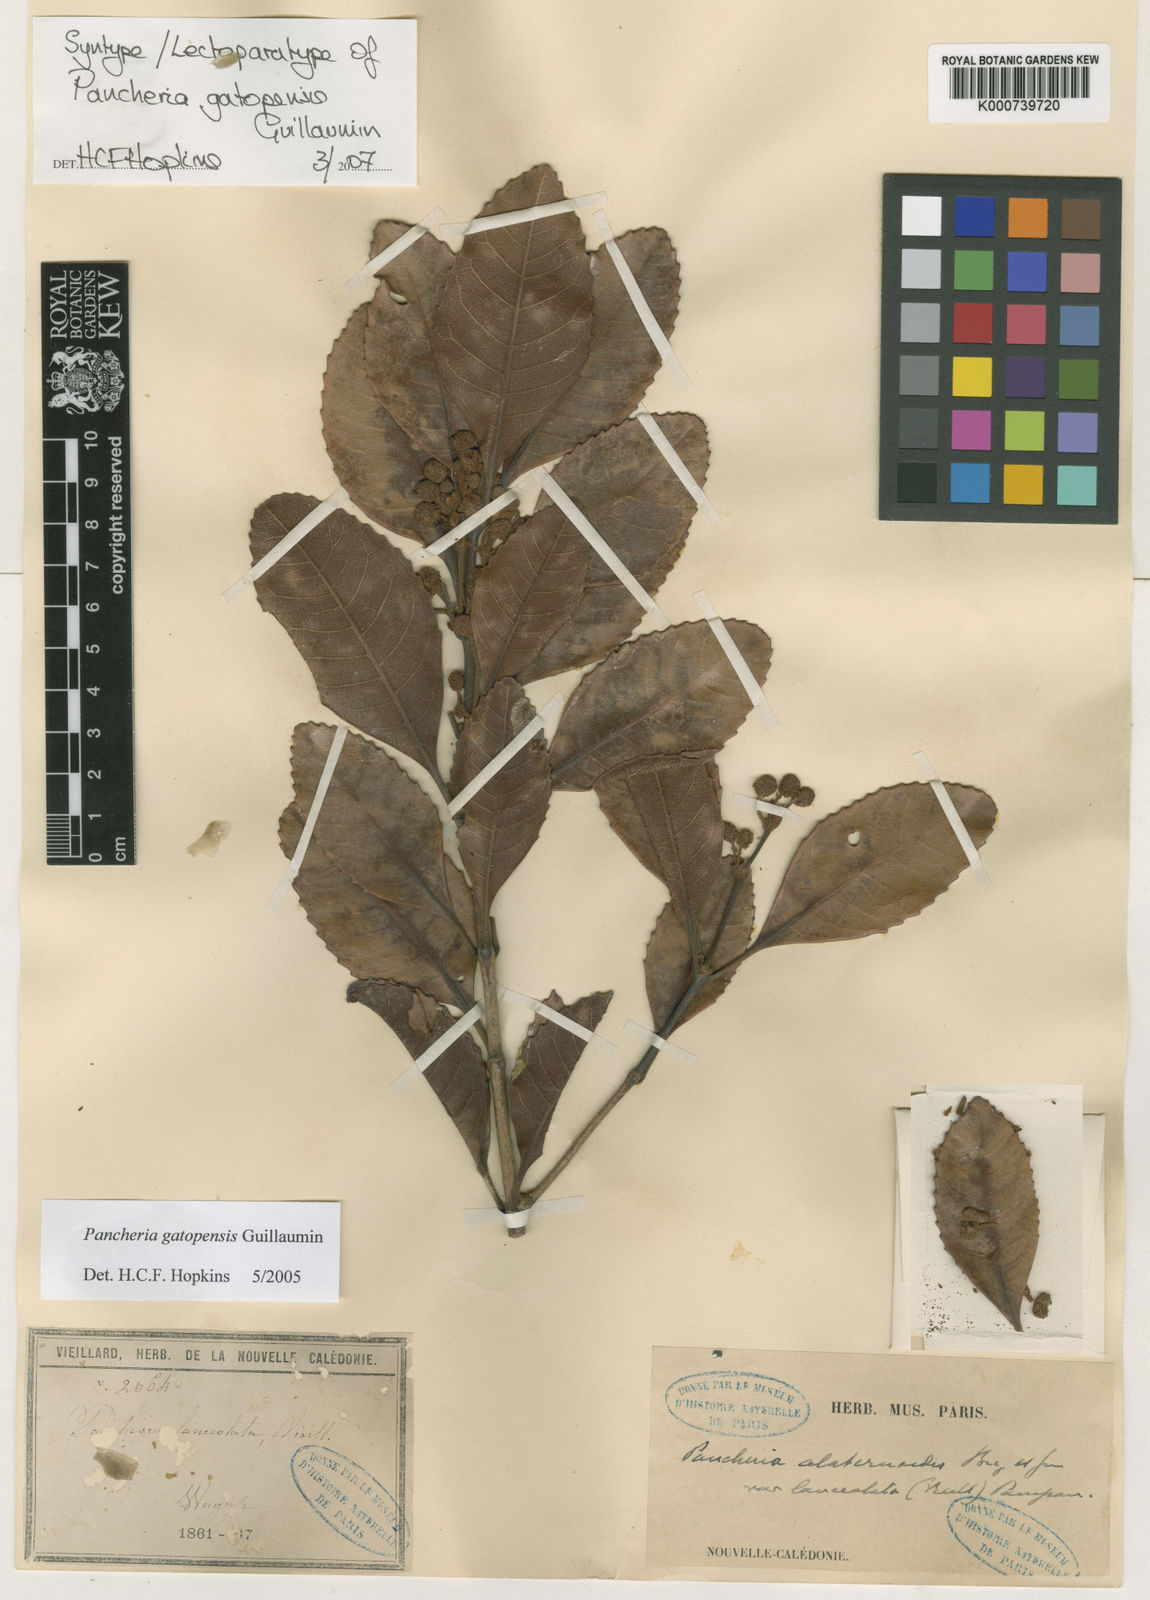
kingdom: Plantae
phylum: Tracheophyta
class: Magnoliopsida
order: Oxalidales
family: Cunoniaceae
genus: Pancheria
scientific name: Pancheria gatopensis
